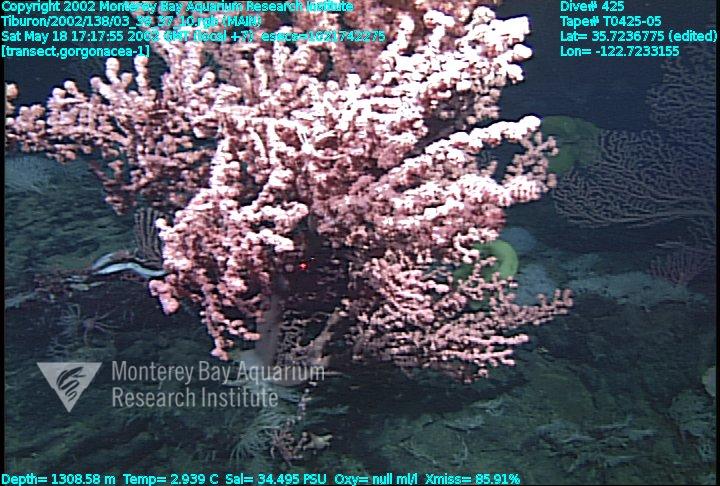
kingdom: Animalia
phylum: Porifera
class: Hexactinellida
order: Sceptrulophora
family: Farreidae
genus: Farrea
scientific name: Farrea occa
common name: Reversed glass sponge
